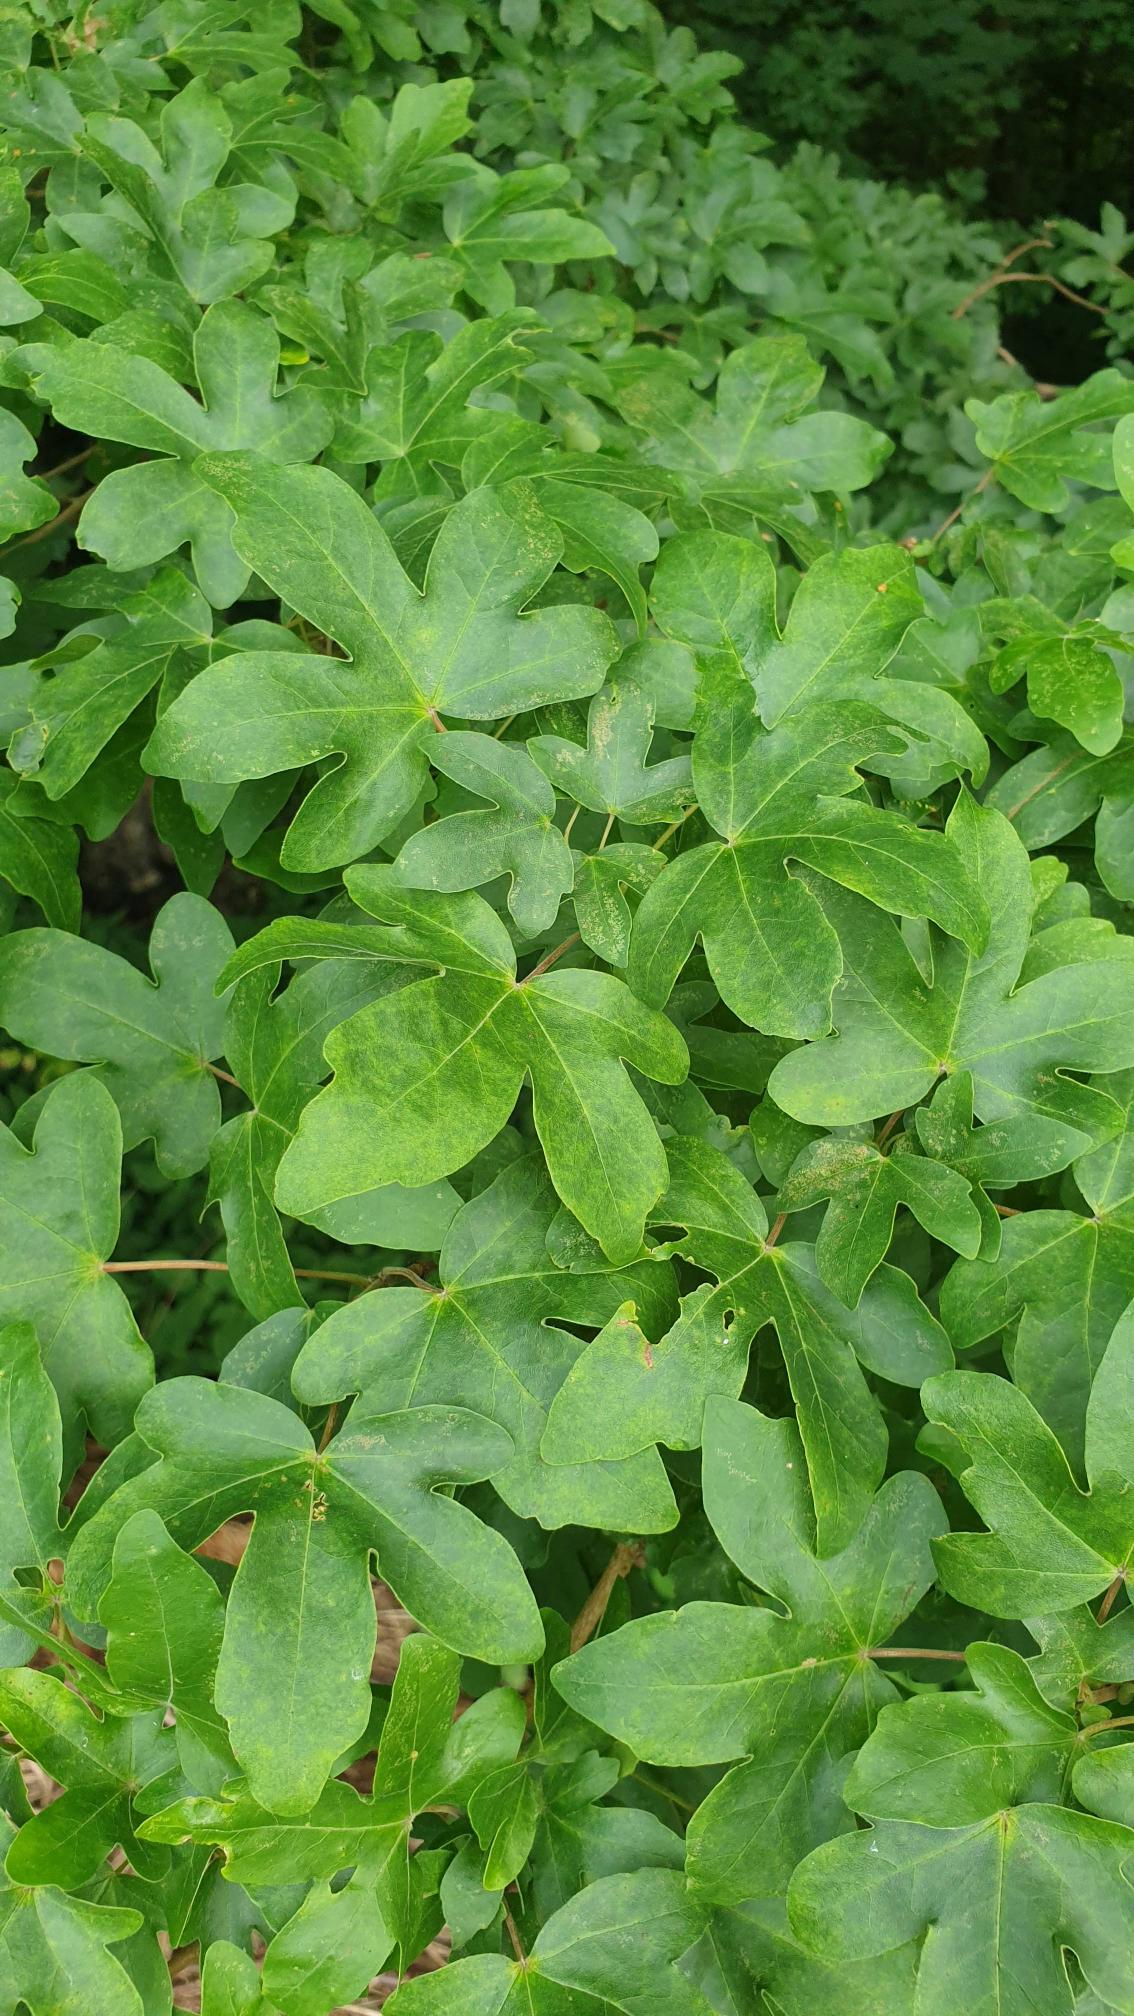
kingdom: Plantae
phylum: Tracheophyta
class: Magnoliopsida
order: Sapindales
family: Sapindaceae
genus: Acer
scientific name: Acer campestre
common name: Navr
